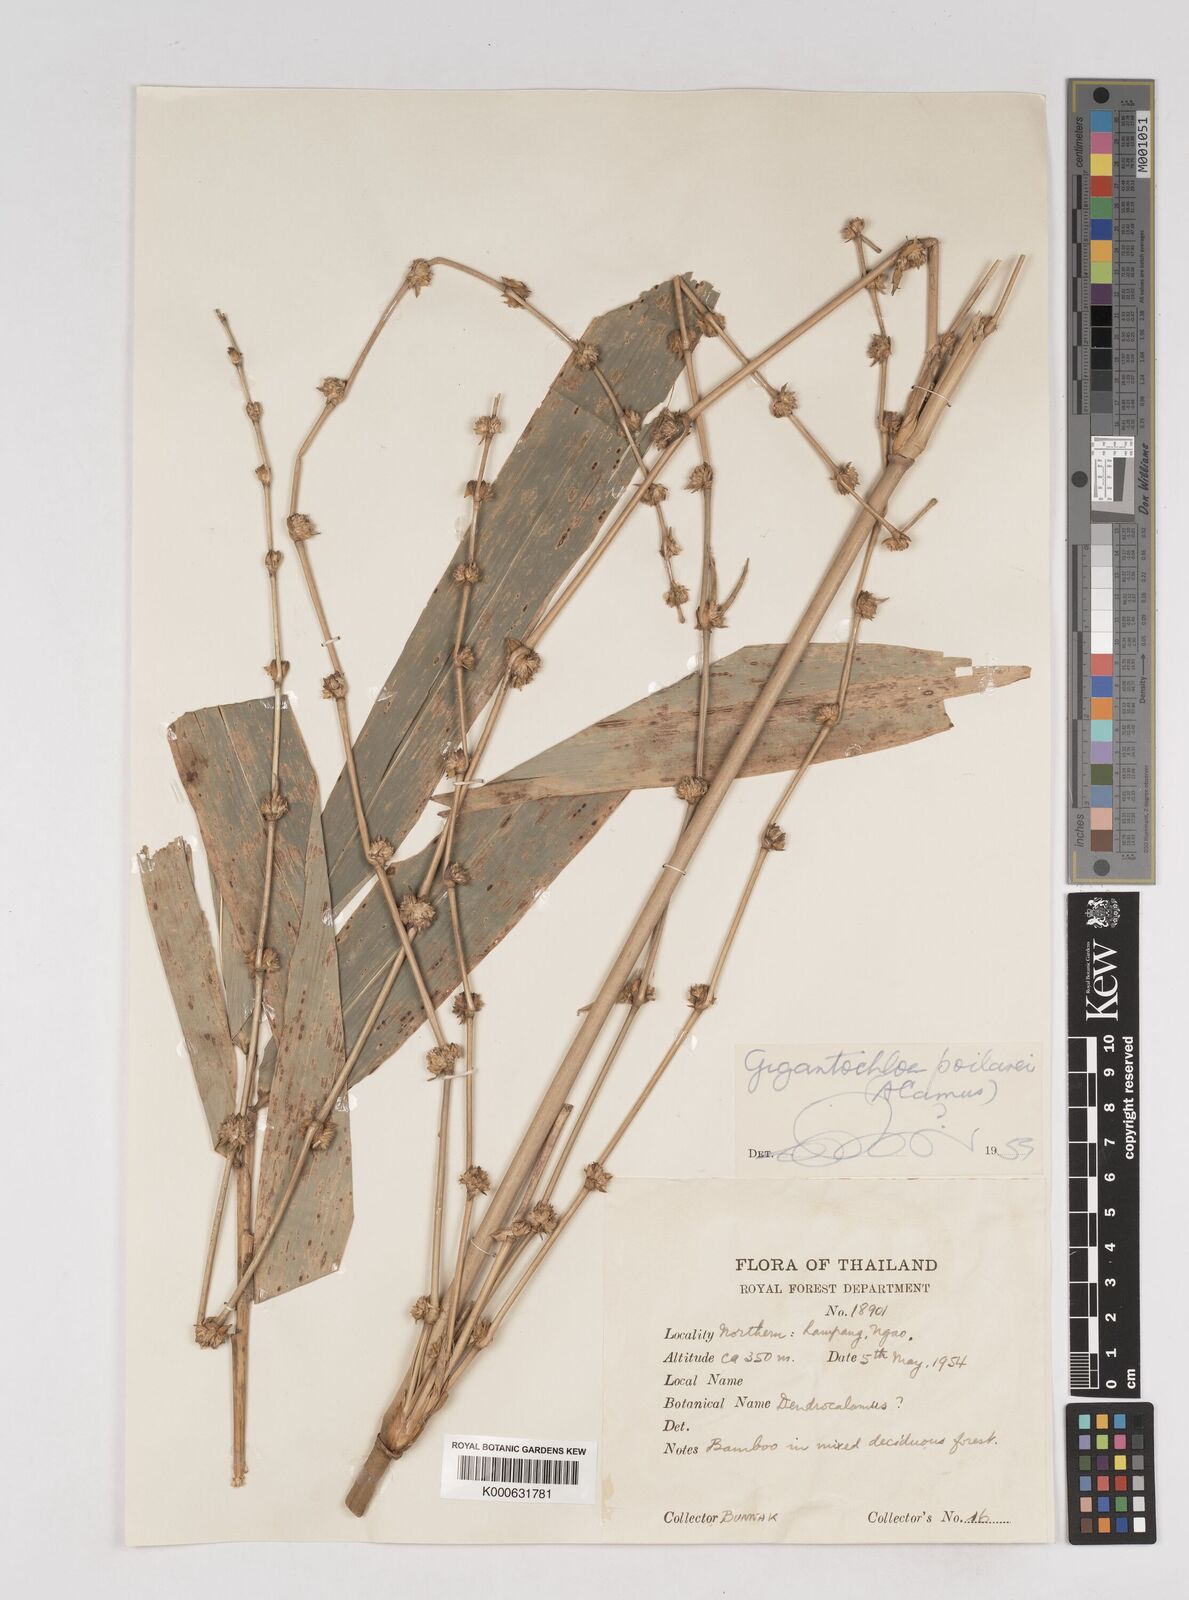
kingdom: Plantae
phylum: Tracheophyta
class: Liliopsida
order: Poales
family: Poaceae
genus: Gigantochloa
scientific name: Gigantochloa poilanei
